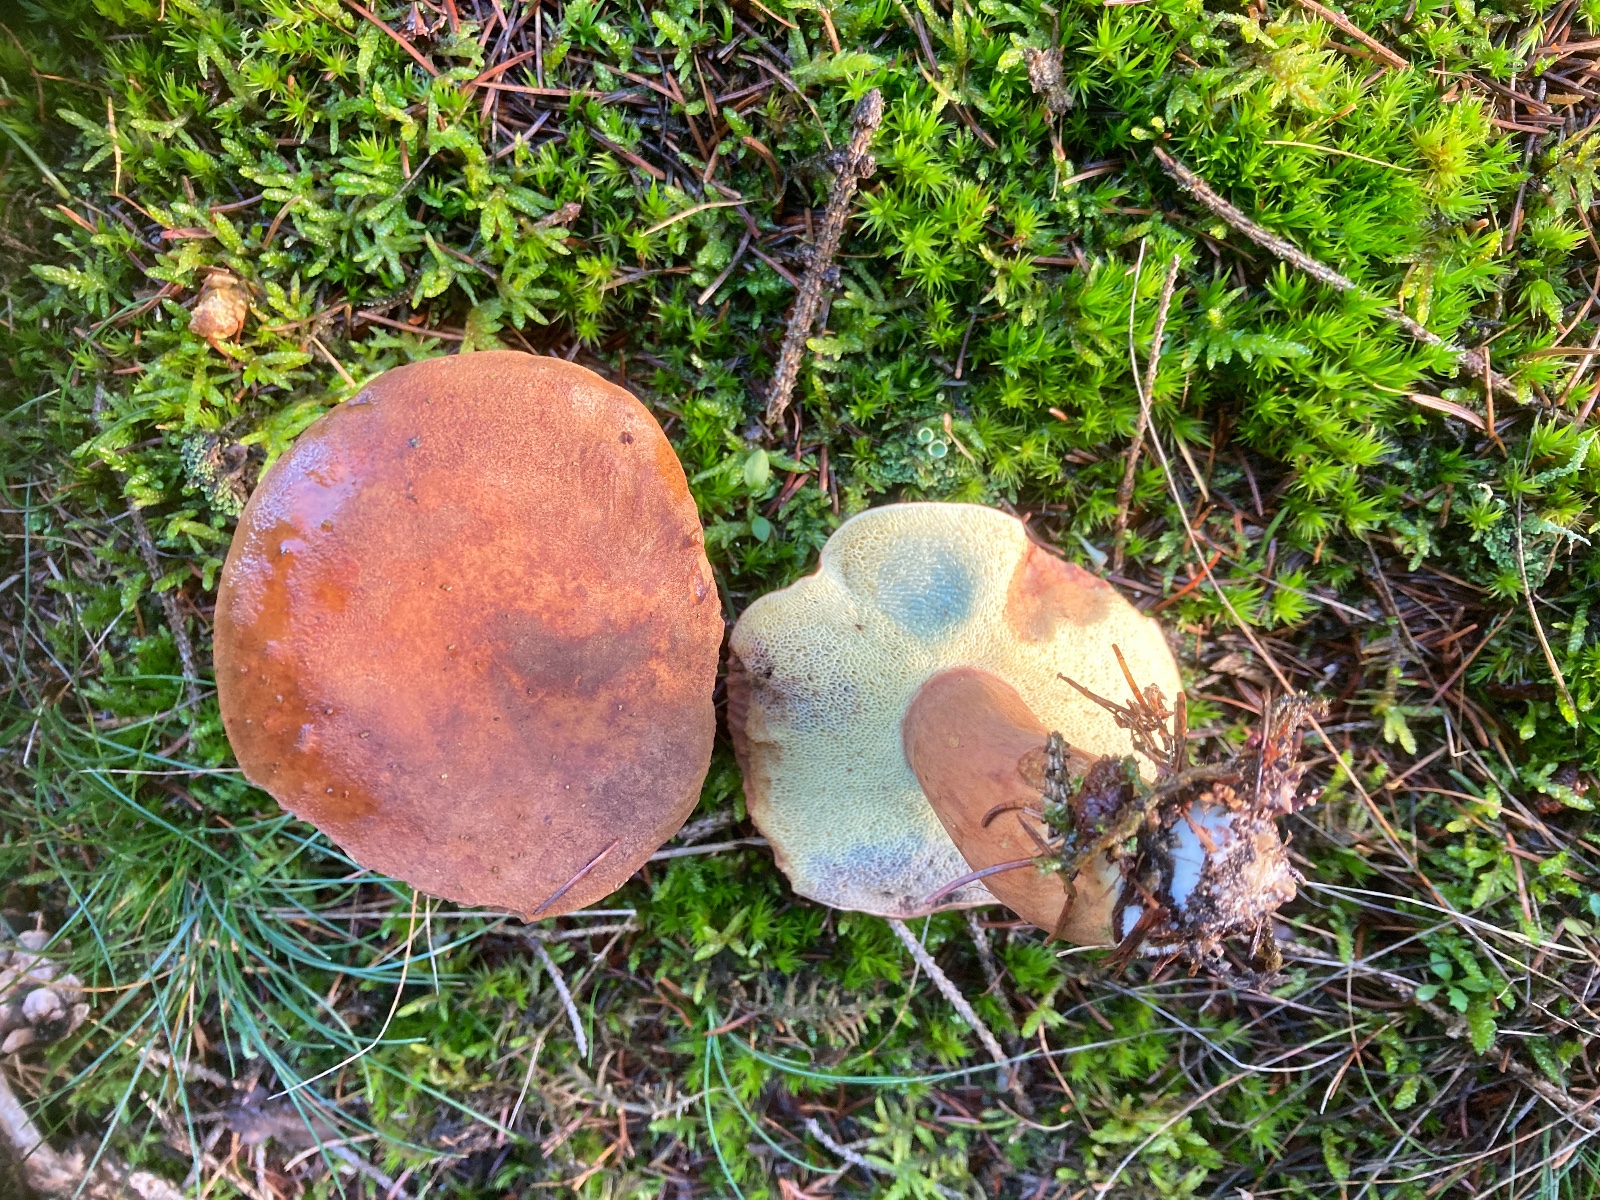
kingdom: Fungi
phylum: Basidiomycota
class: Agaricomycetes
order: Boletales
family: Boletaceae
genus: Imleria
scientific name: Imleria badia
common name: brunstokket rørhat
